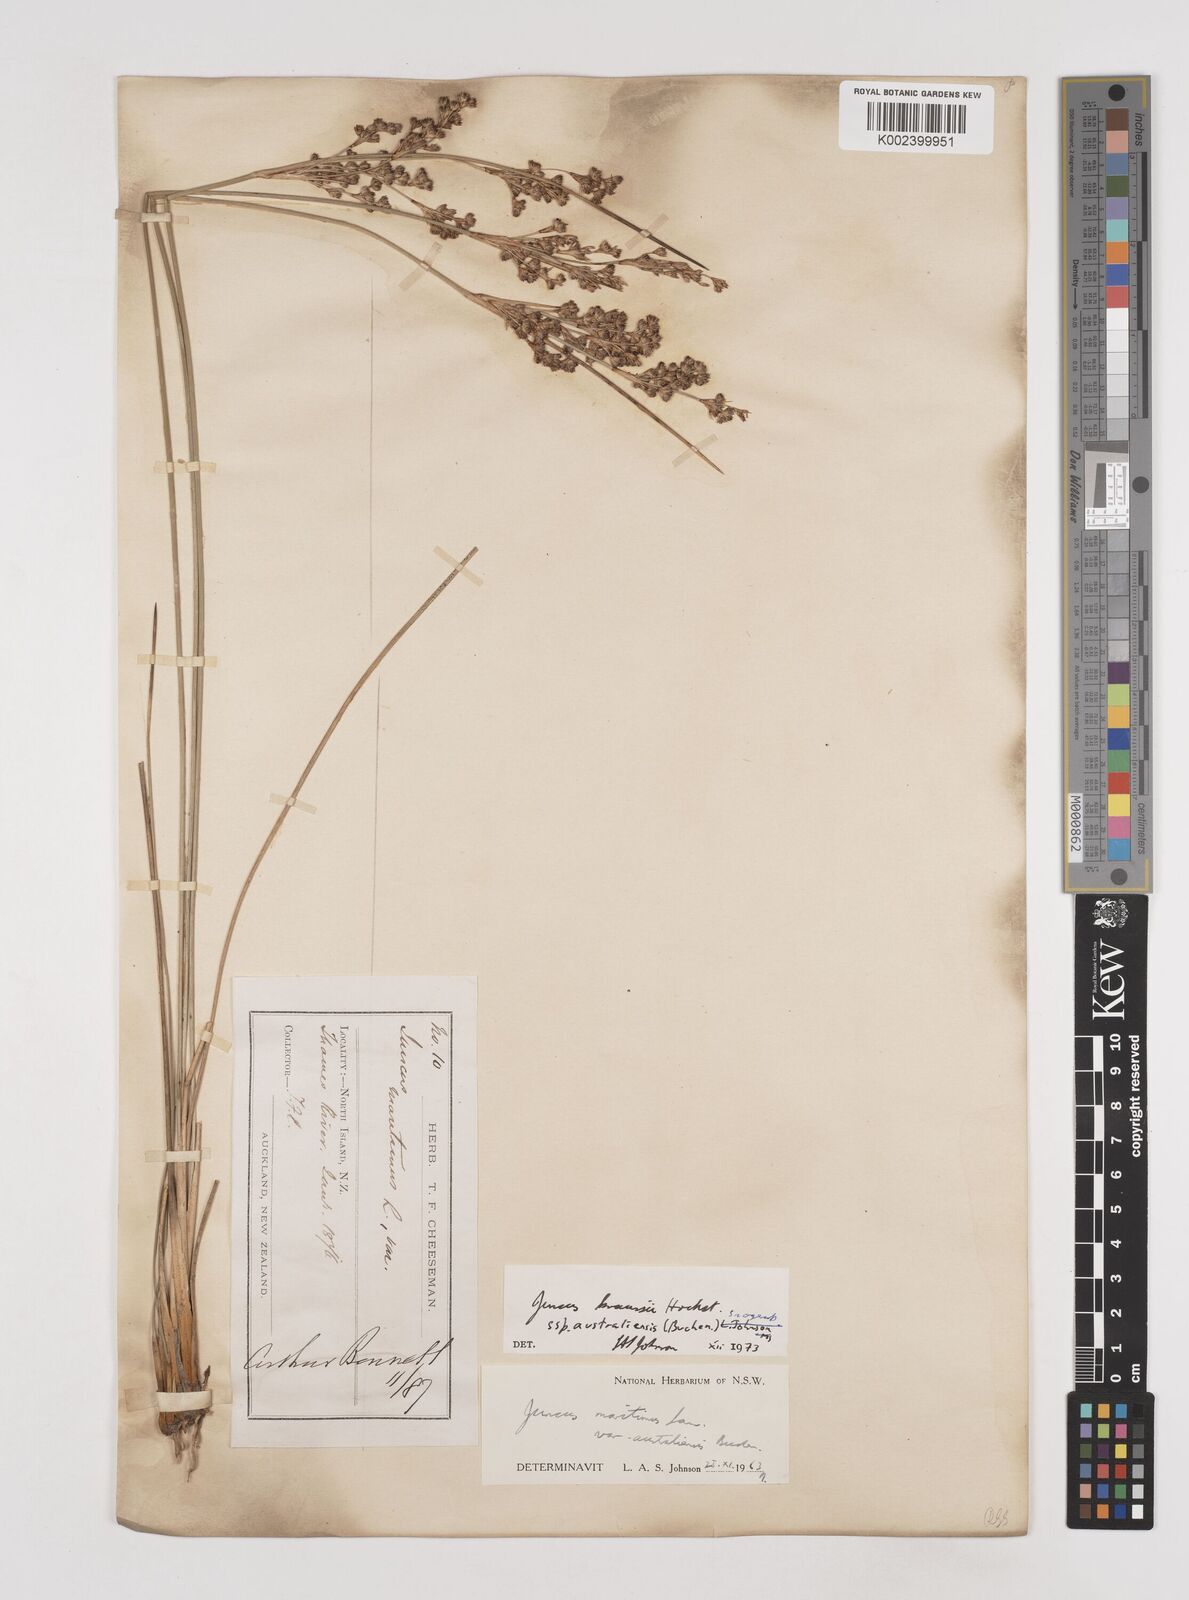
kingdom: Plantae
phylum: Tracheophyta
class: Liliopsida
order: Poales
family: Juncaceae
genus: Juncus
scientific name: Juncus kraussii
